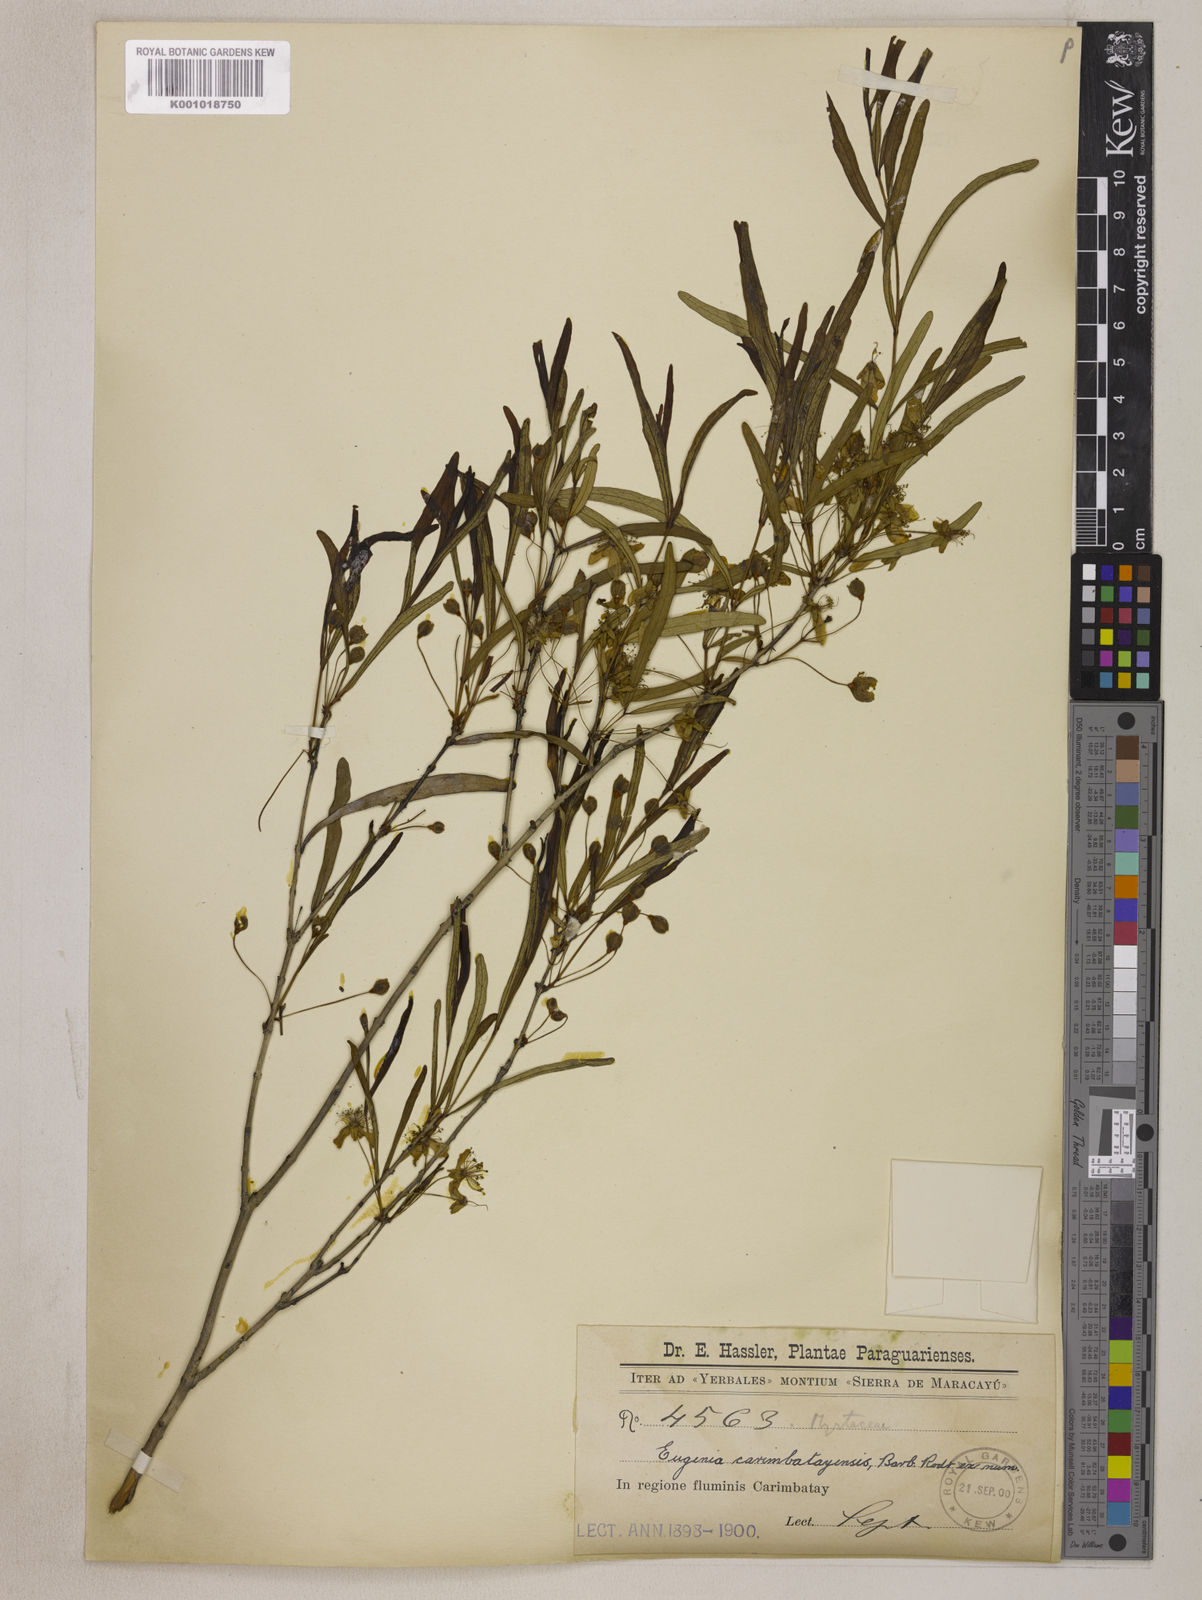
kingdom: Plantae
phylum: Tracheophyta
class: Magnoliopsida
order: Myrtales
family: Myrtaceae
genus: Eugenia
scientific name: Eugenia
